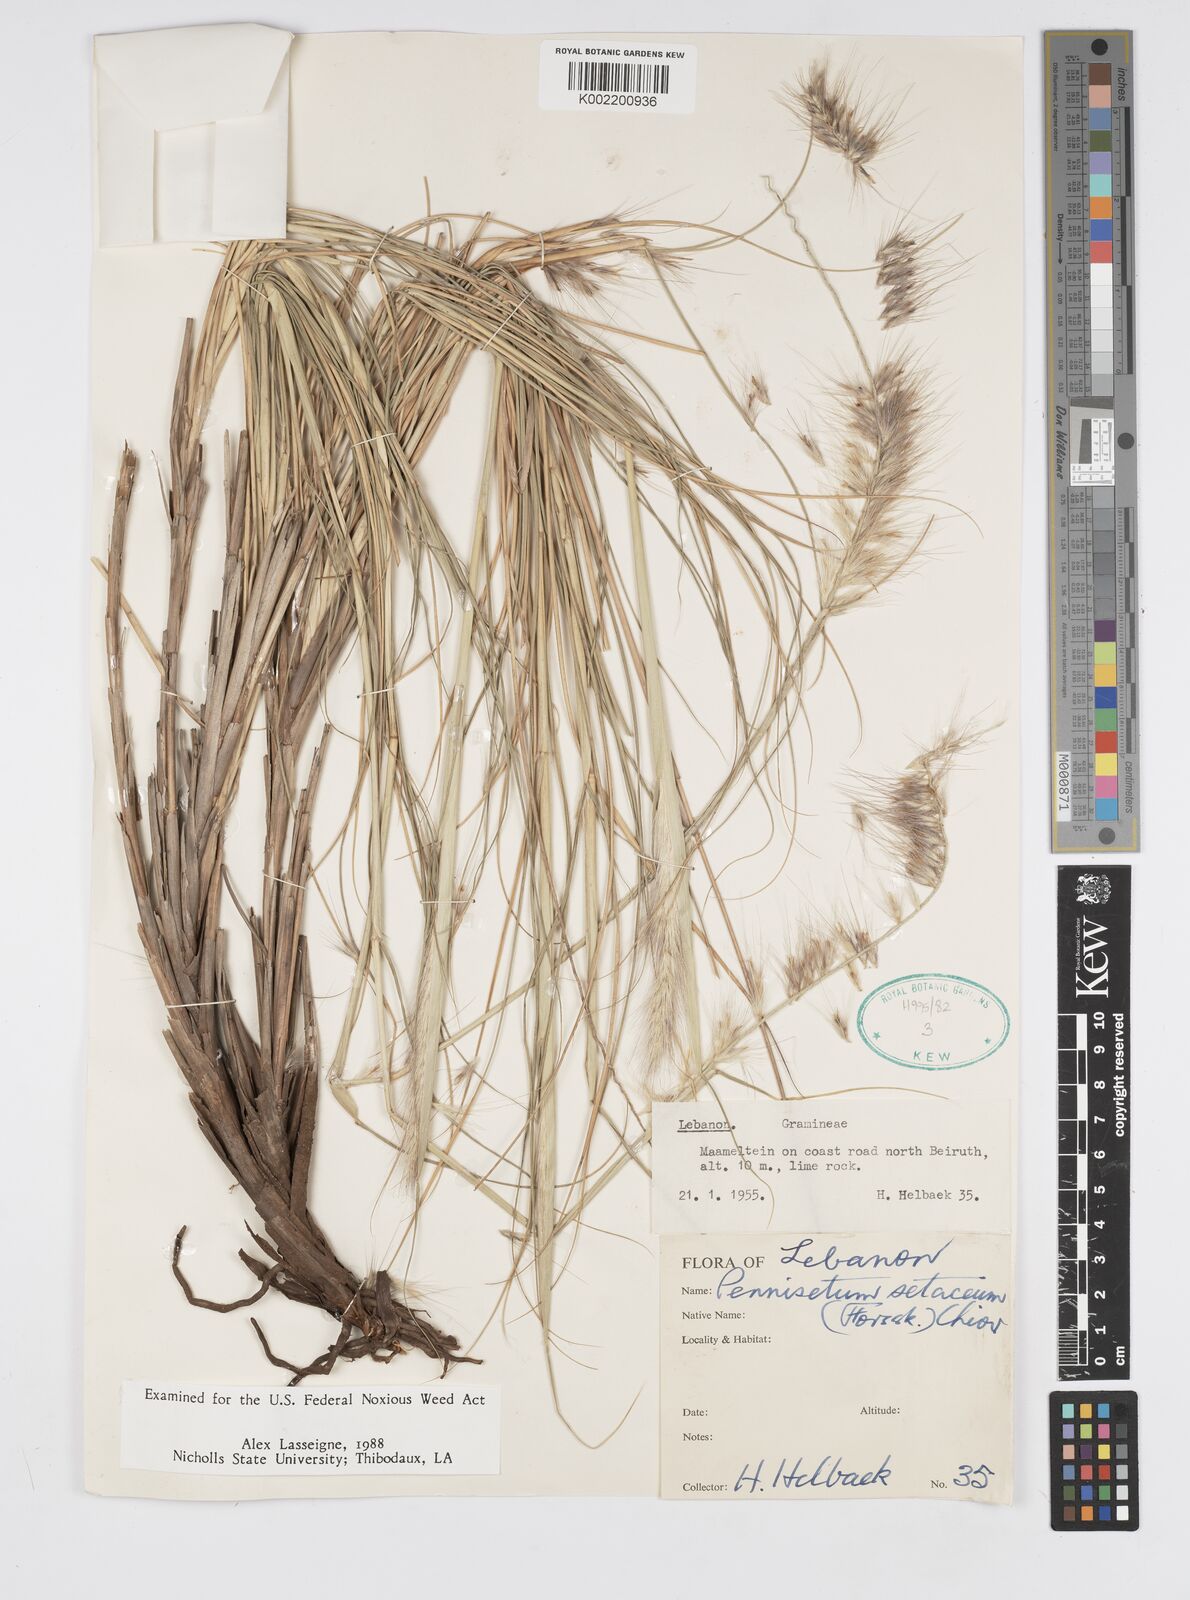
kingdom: Plantae
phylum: Tracheophyta
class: Liliopsida
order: Poales
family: Poaceae
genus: Cenchrus
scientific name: Cenchrus setaceus
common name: Crimson fountaingrass
